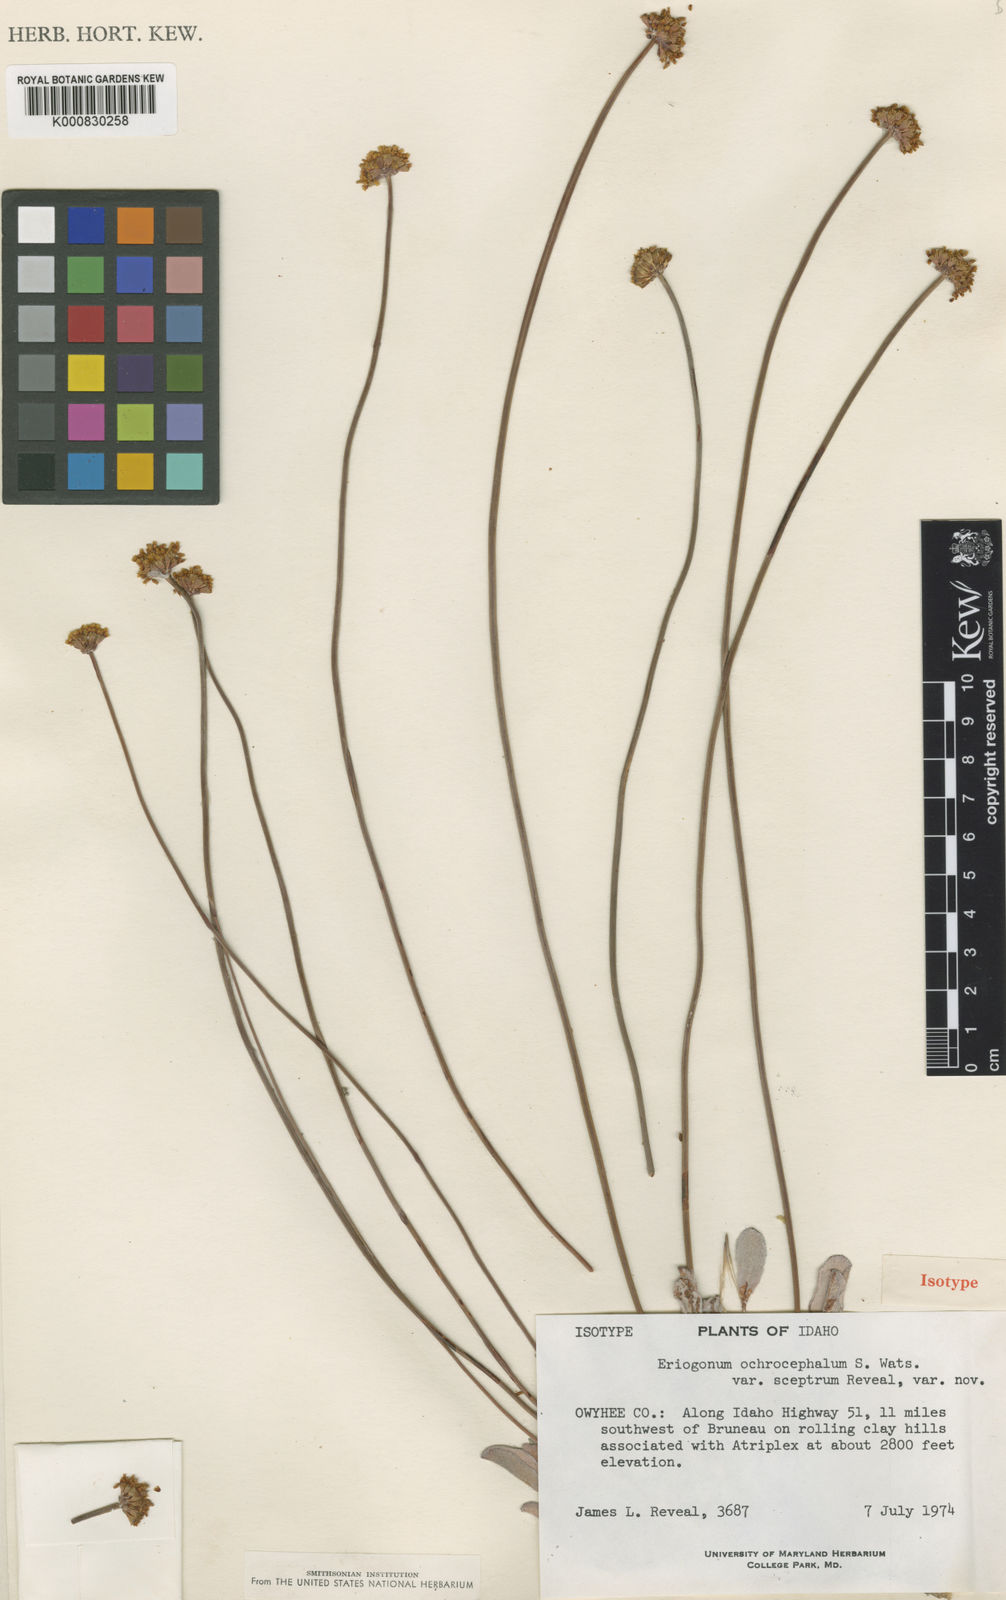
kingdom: Plantae
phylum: Tracheophyta
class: Magnoliopsida
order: Caryophyllales
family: Polygonaceae
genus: Eriogonum
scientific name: Eriogonum calcareum
